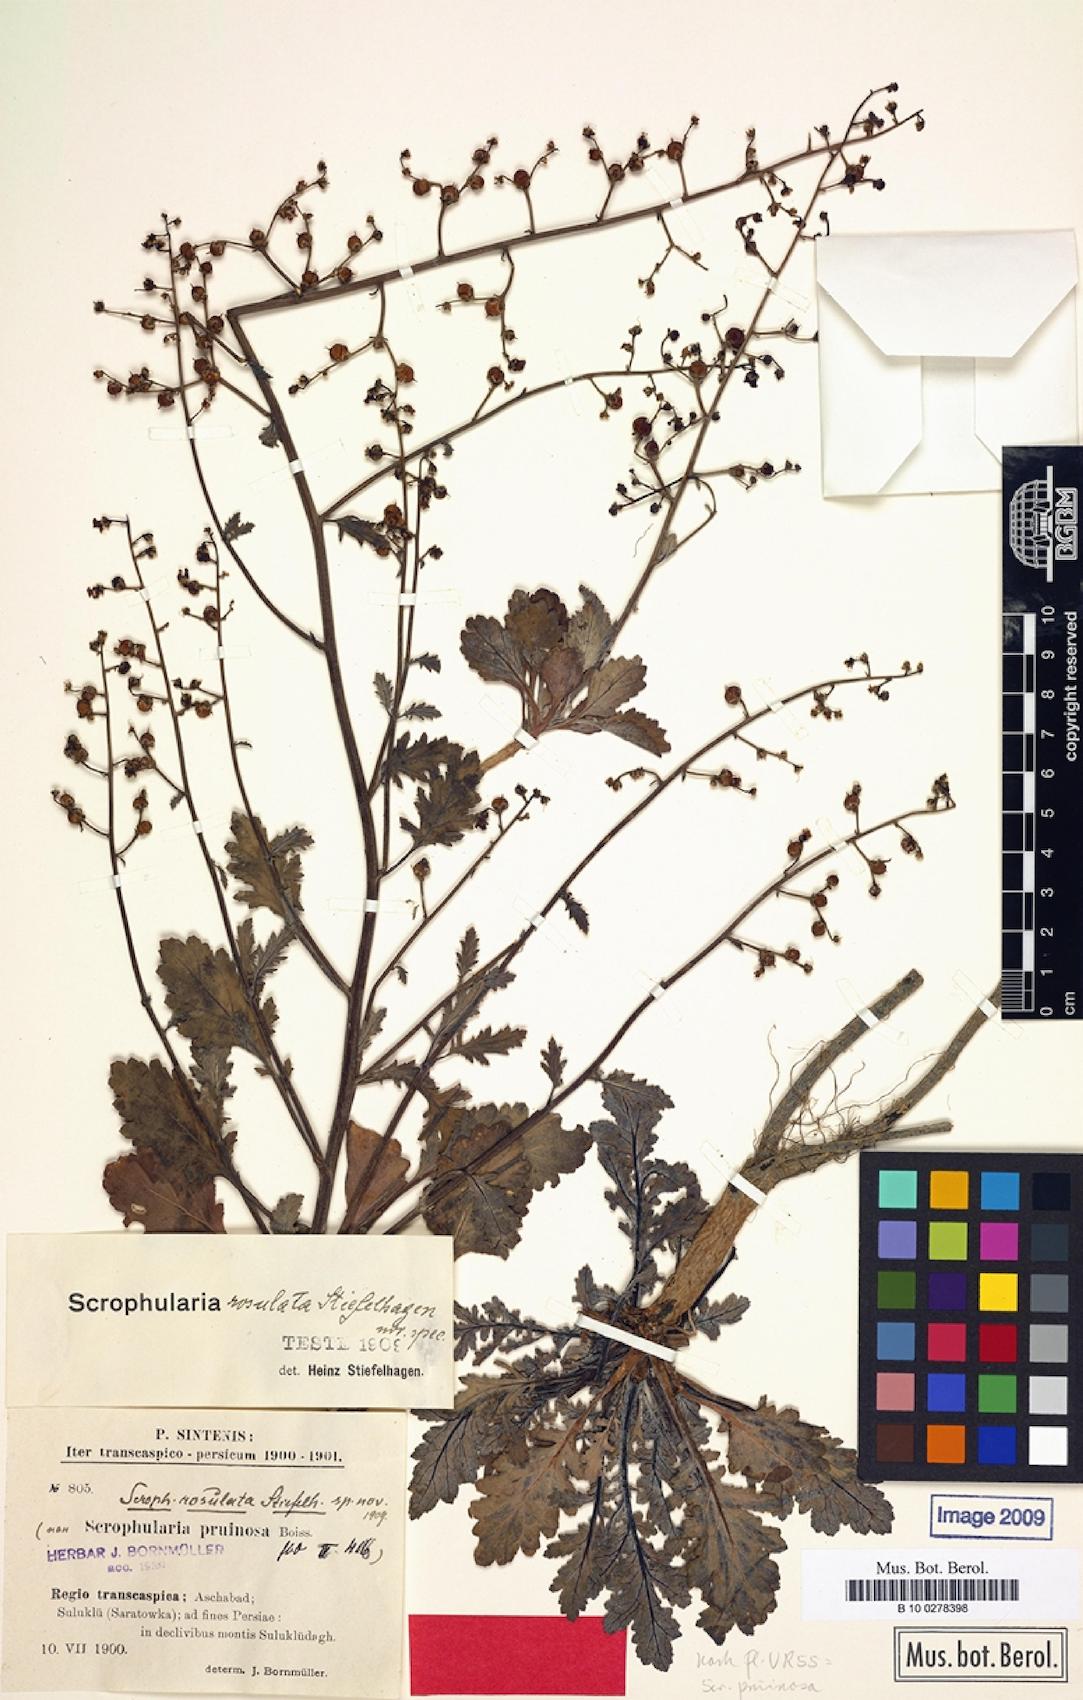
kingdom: Plantae
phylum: Tracheophyta
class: Magnoliopsida
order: Lamiales
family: Scrophulariaceae
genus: Scrophularia
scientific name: Scrophularia pruinosa
